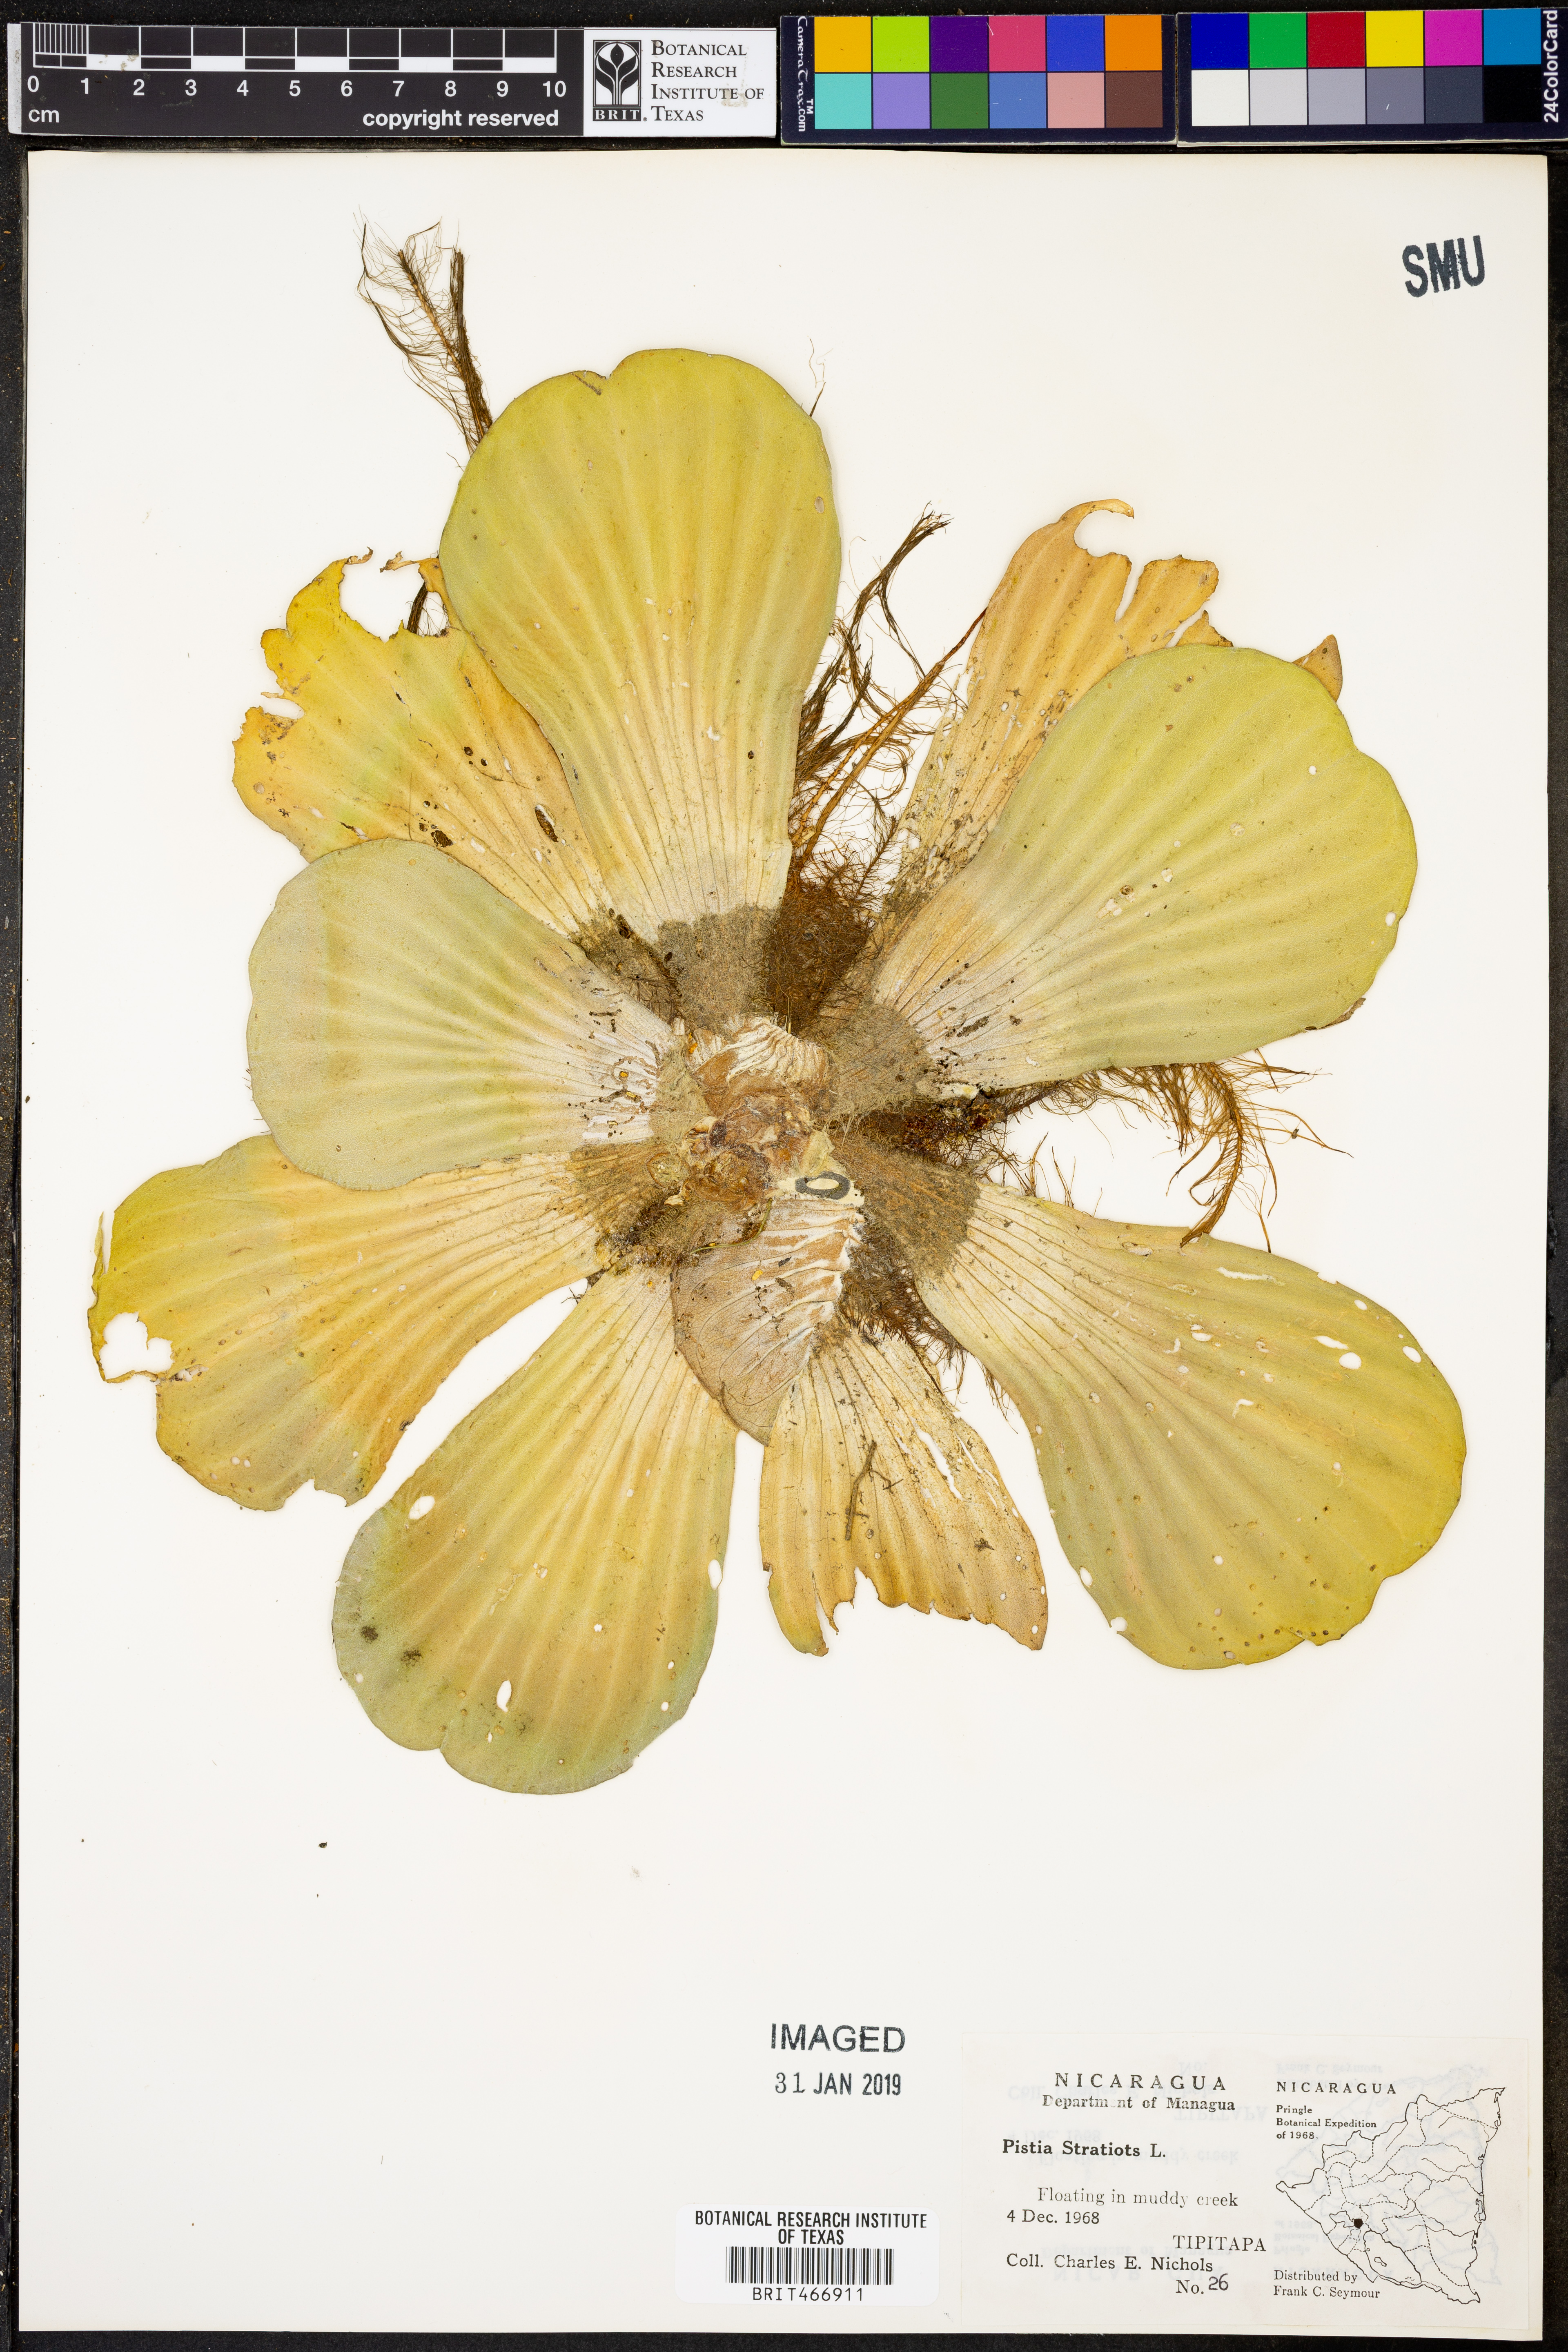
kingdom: Plantae
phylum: Tracheophyta
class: Liliopsida
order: Alismatales
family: Araceae
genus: Pistia
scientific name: Pistia stratiotes
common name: Water lettuce
